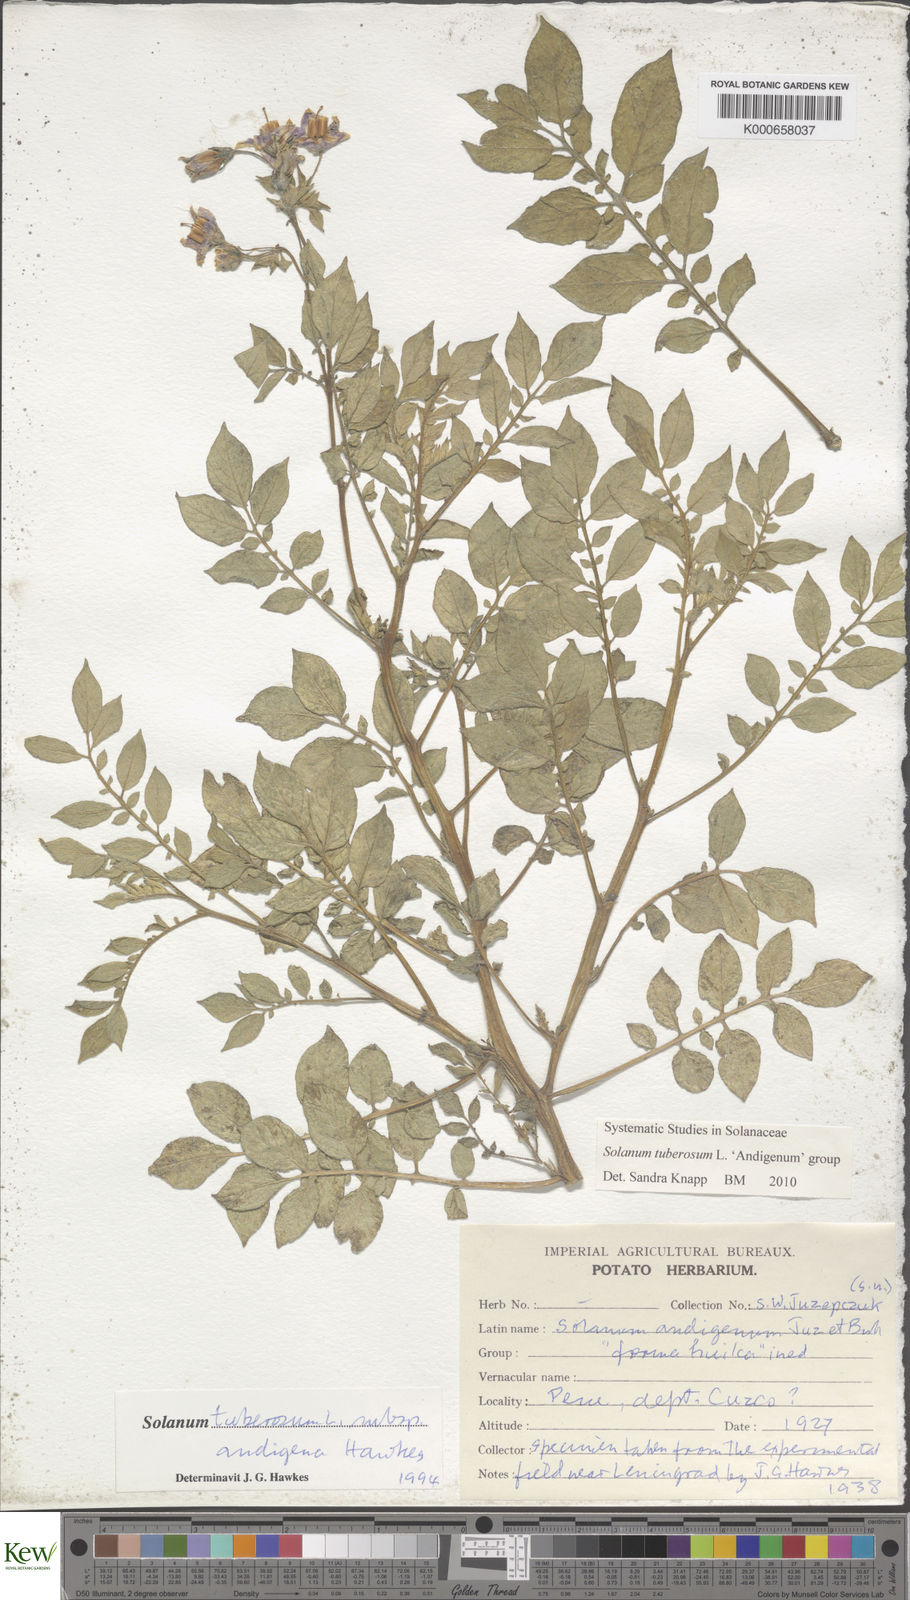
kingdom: Plantae
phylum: Tracheophyta
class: Magnoliopsida
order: Solanales
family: Solanaceae
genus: Solanum
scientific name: Solanum tuberosum
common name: Potato
